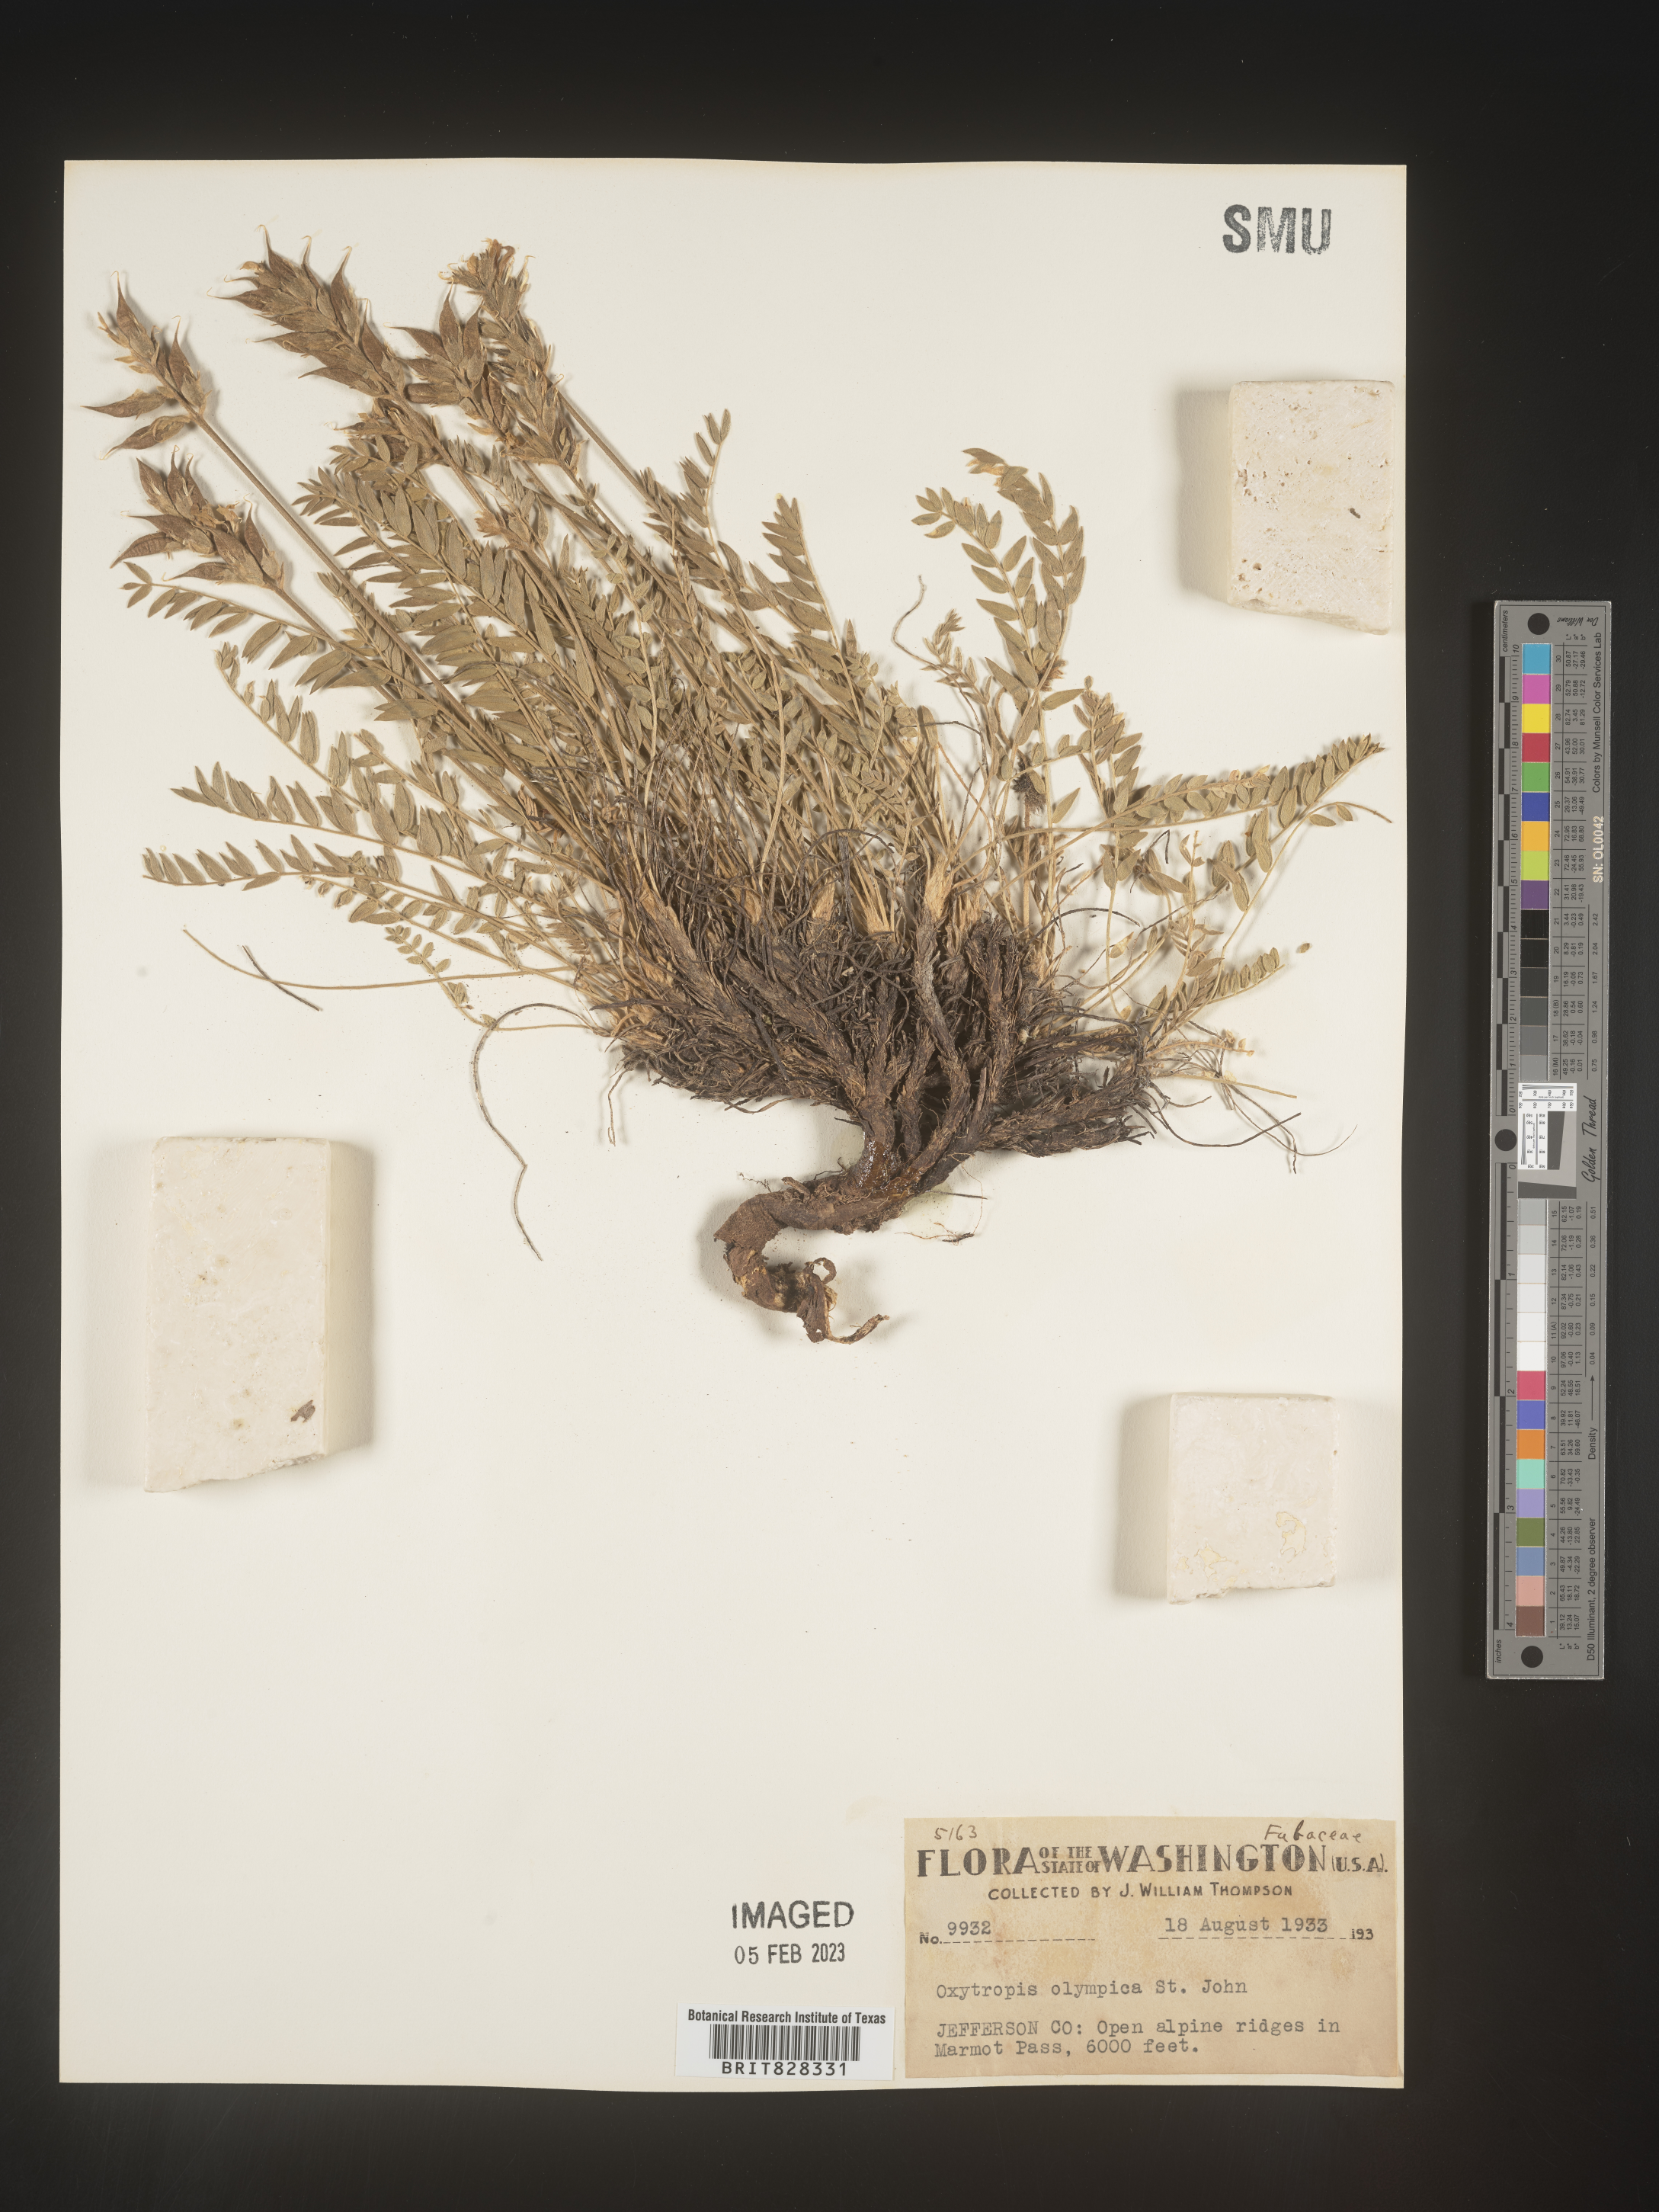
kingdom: Plantae
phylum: Tracheophyta
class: Magnoliopsida
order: Fabales
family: Fabaceae
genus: Oxytropis
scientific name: Oxytropis
